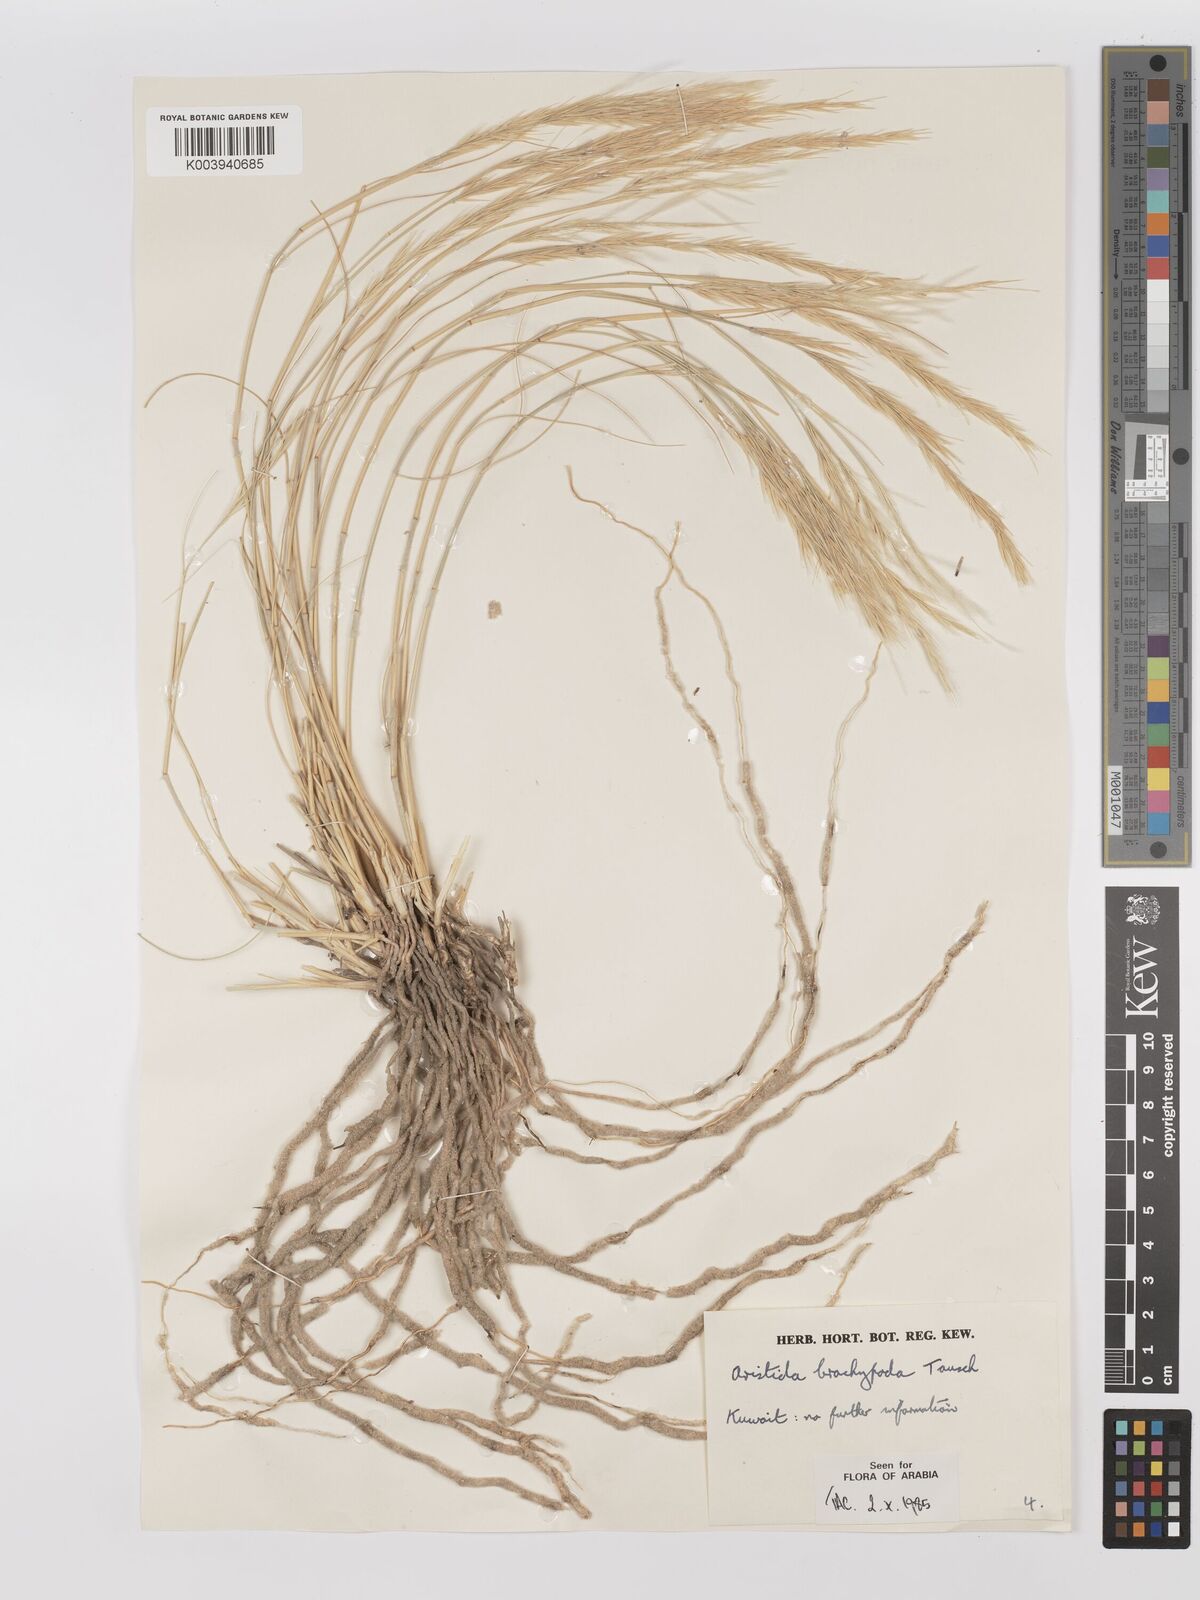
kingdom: Plantae
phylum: Tracheophyta
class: Liliopsida
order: Poales
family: Poaceae
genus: Stipagrostis
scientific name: Stipagrostis plumosa
